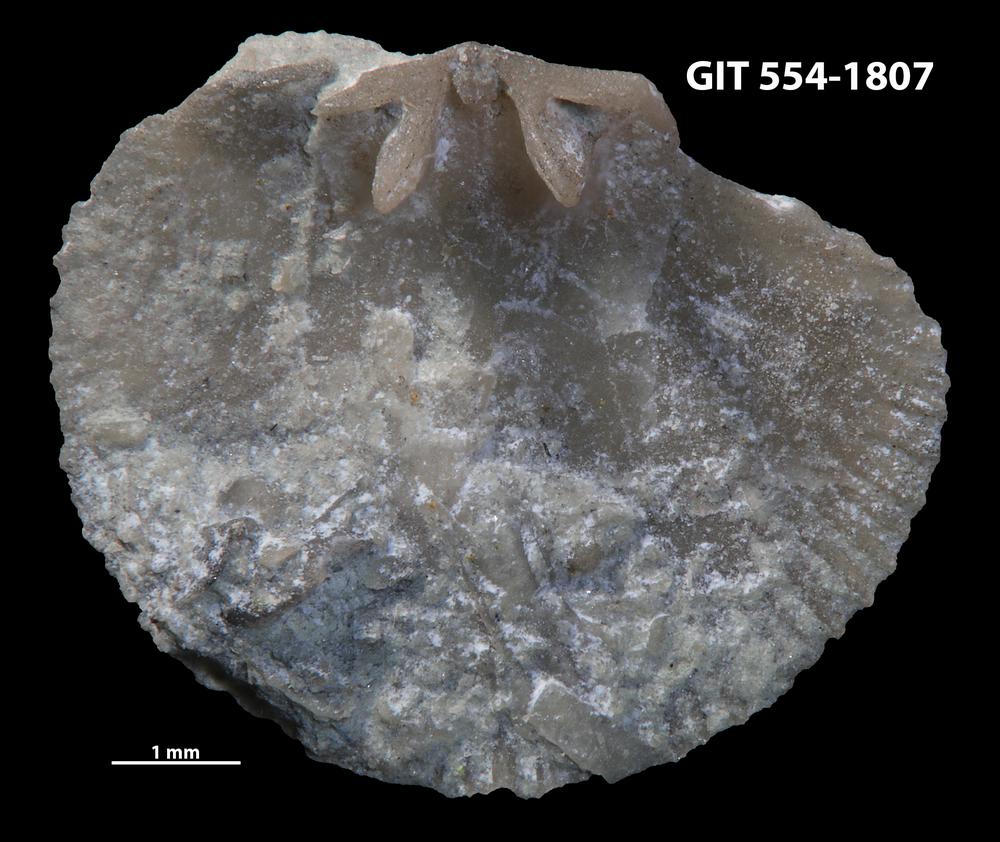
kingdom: Animalia
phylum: Brachiopoda
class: Rhynchonellata
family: Dalmanellidae
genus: Dalmanella
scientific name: Dalmanella cyclica
